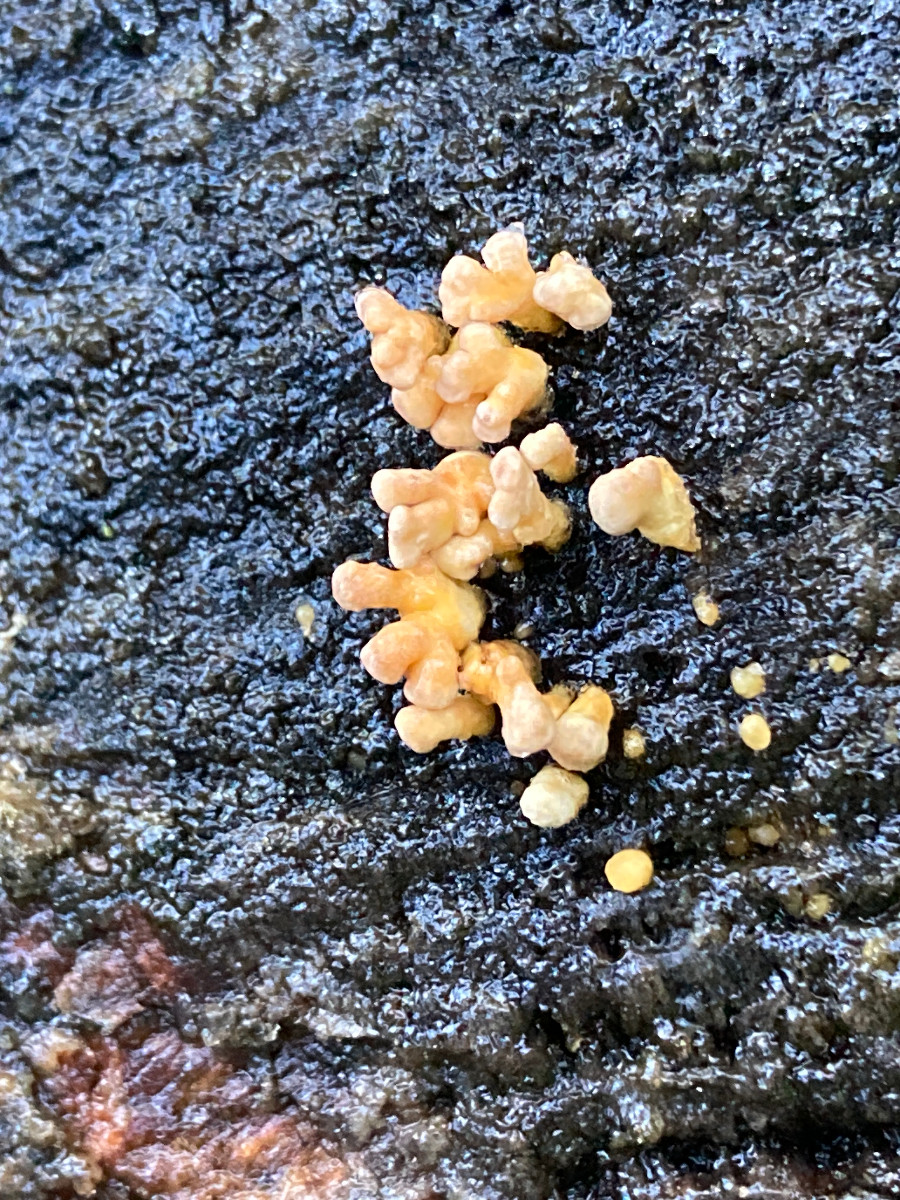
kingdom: Fungi
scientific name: Fungi
